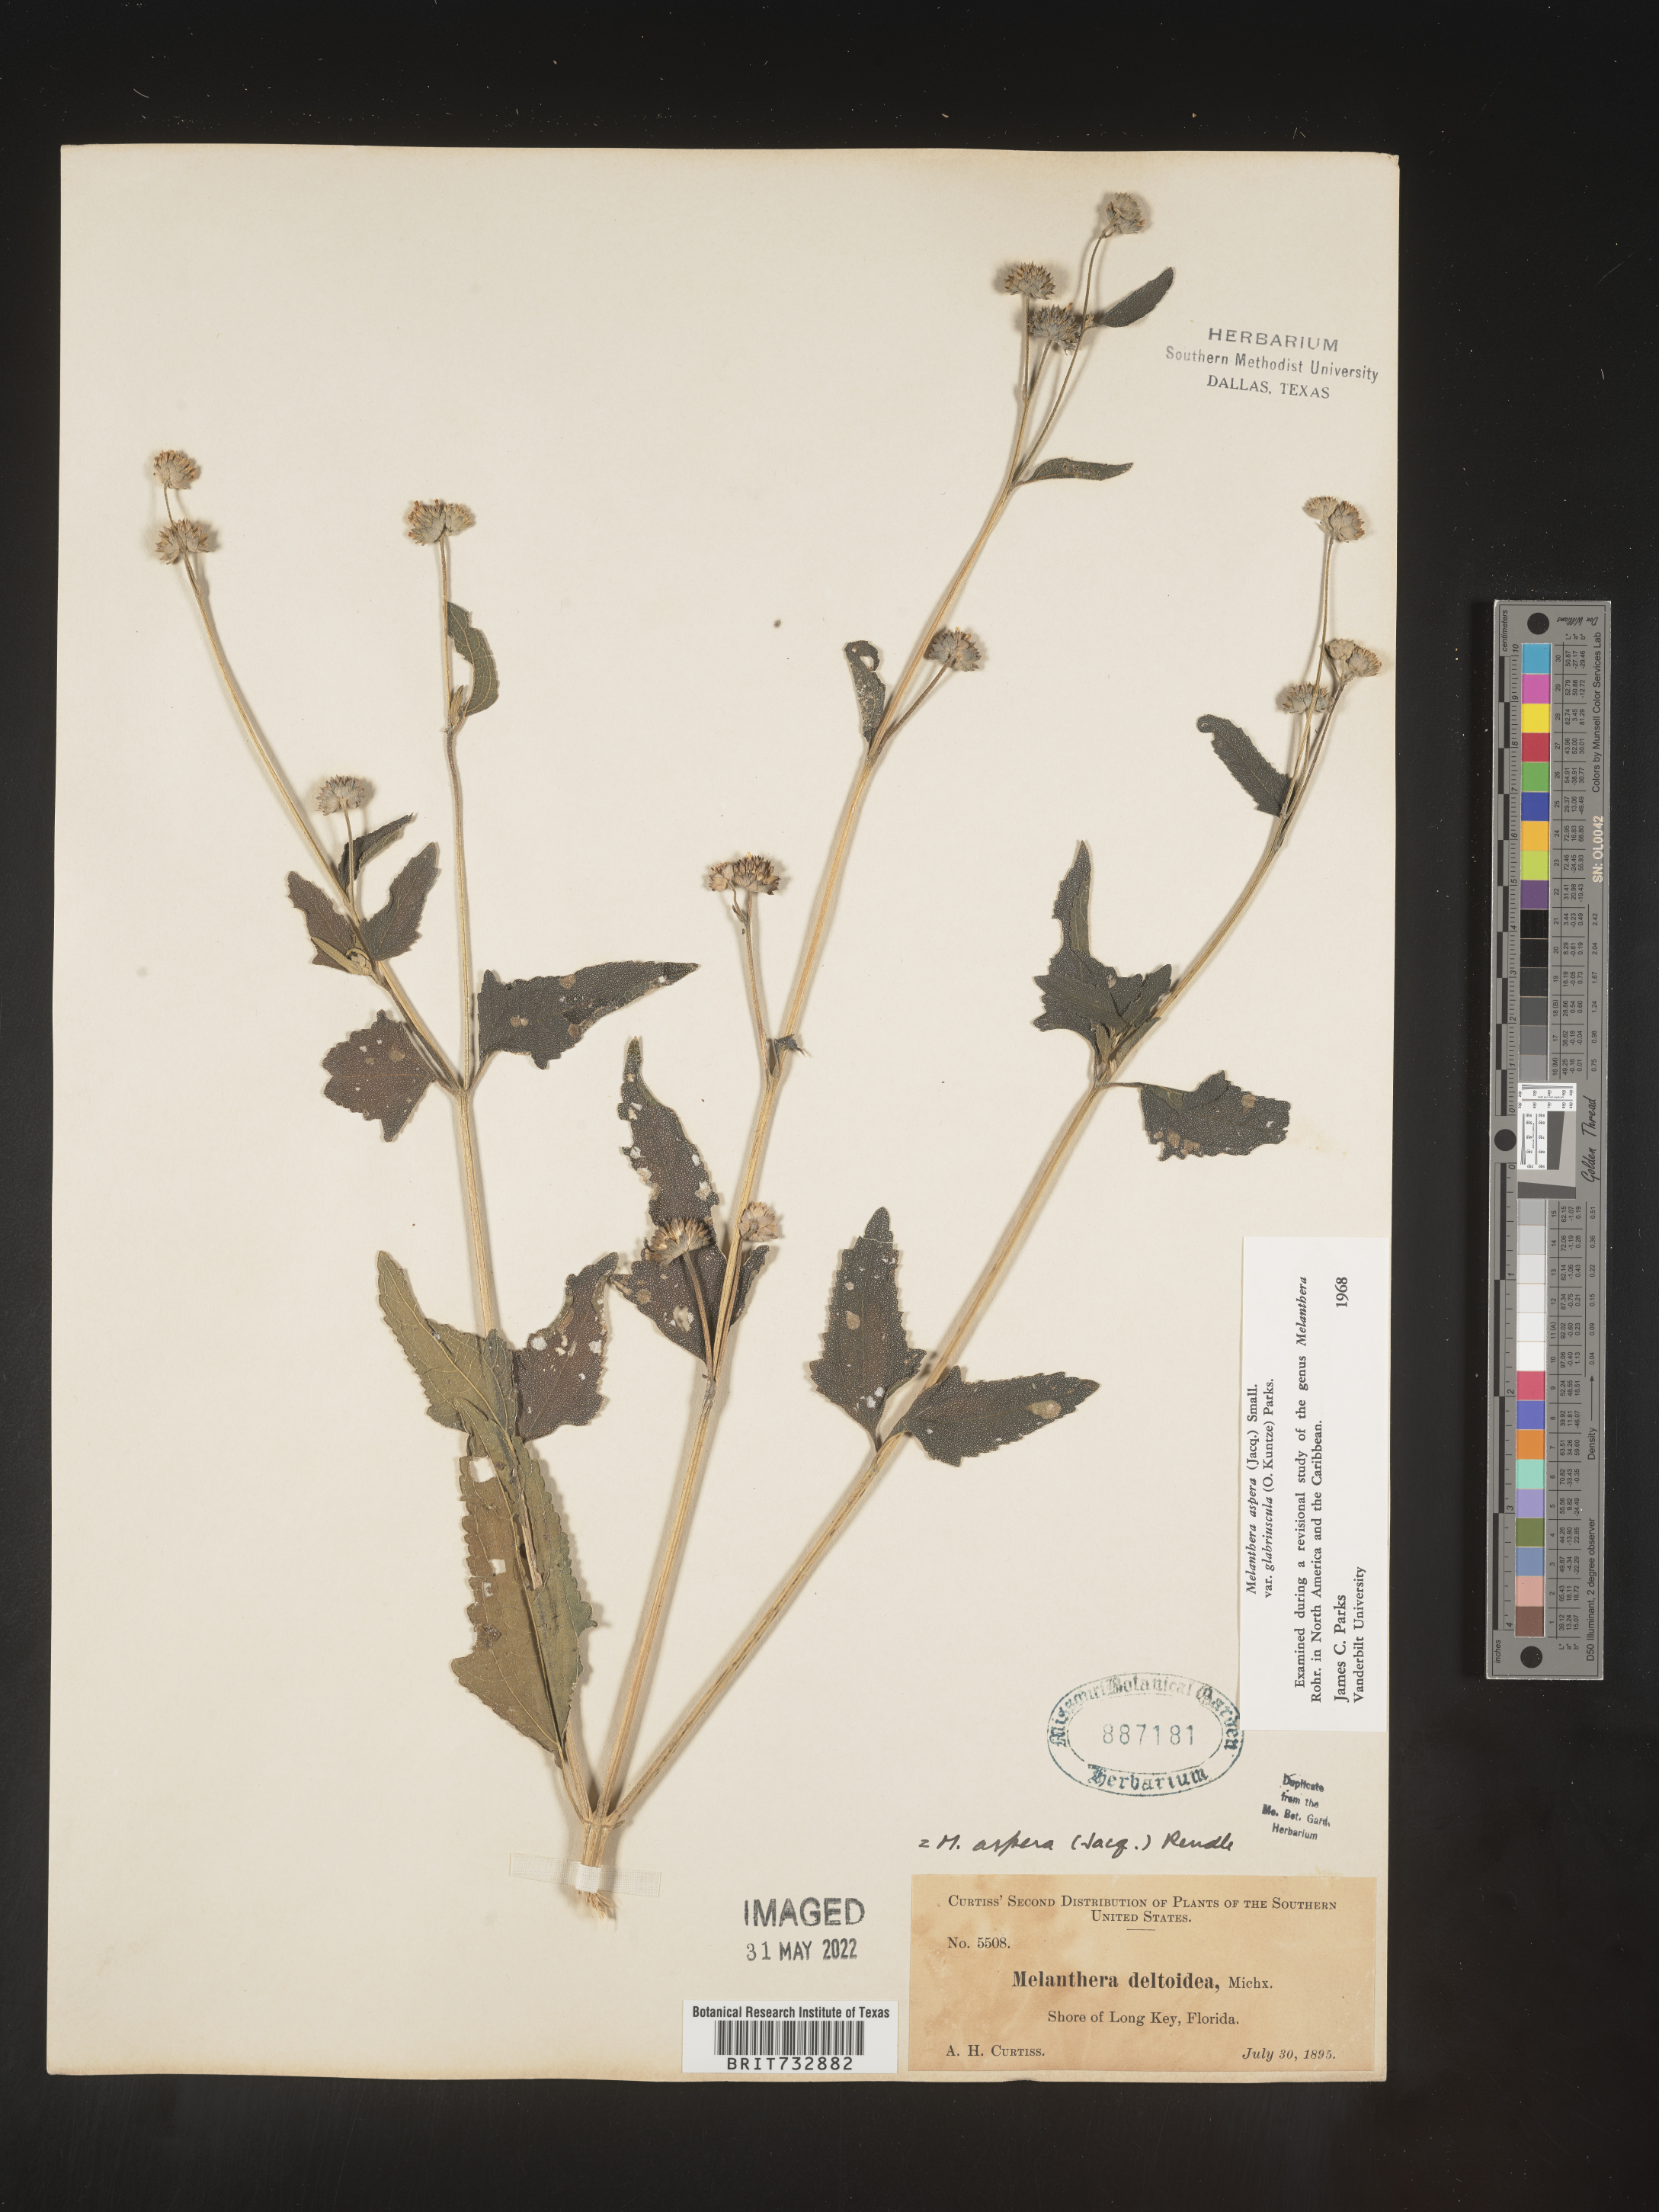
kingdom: Plantae
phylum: Tracheophyta
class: Magnoliopsida
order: Asterales
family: Asteraceae
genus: Melanthera
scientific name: Melanthera nivea
